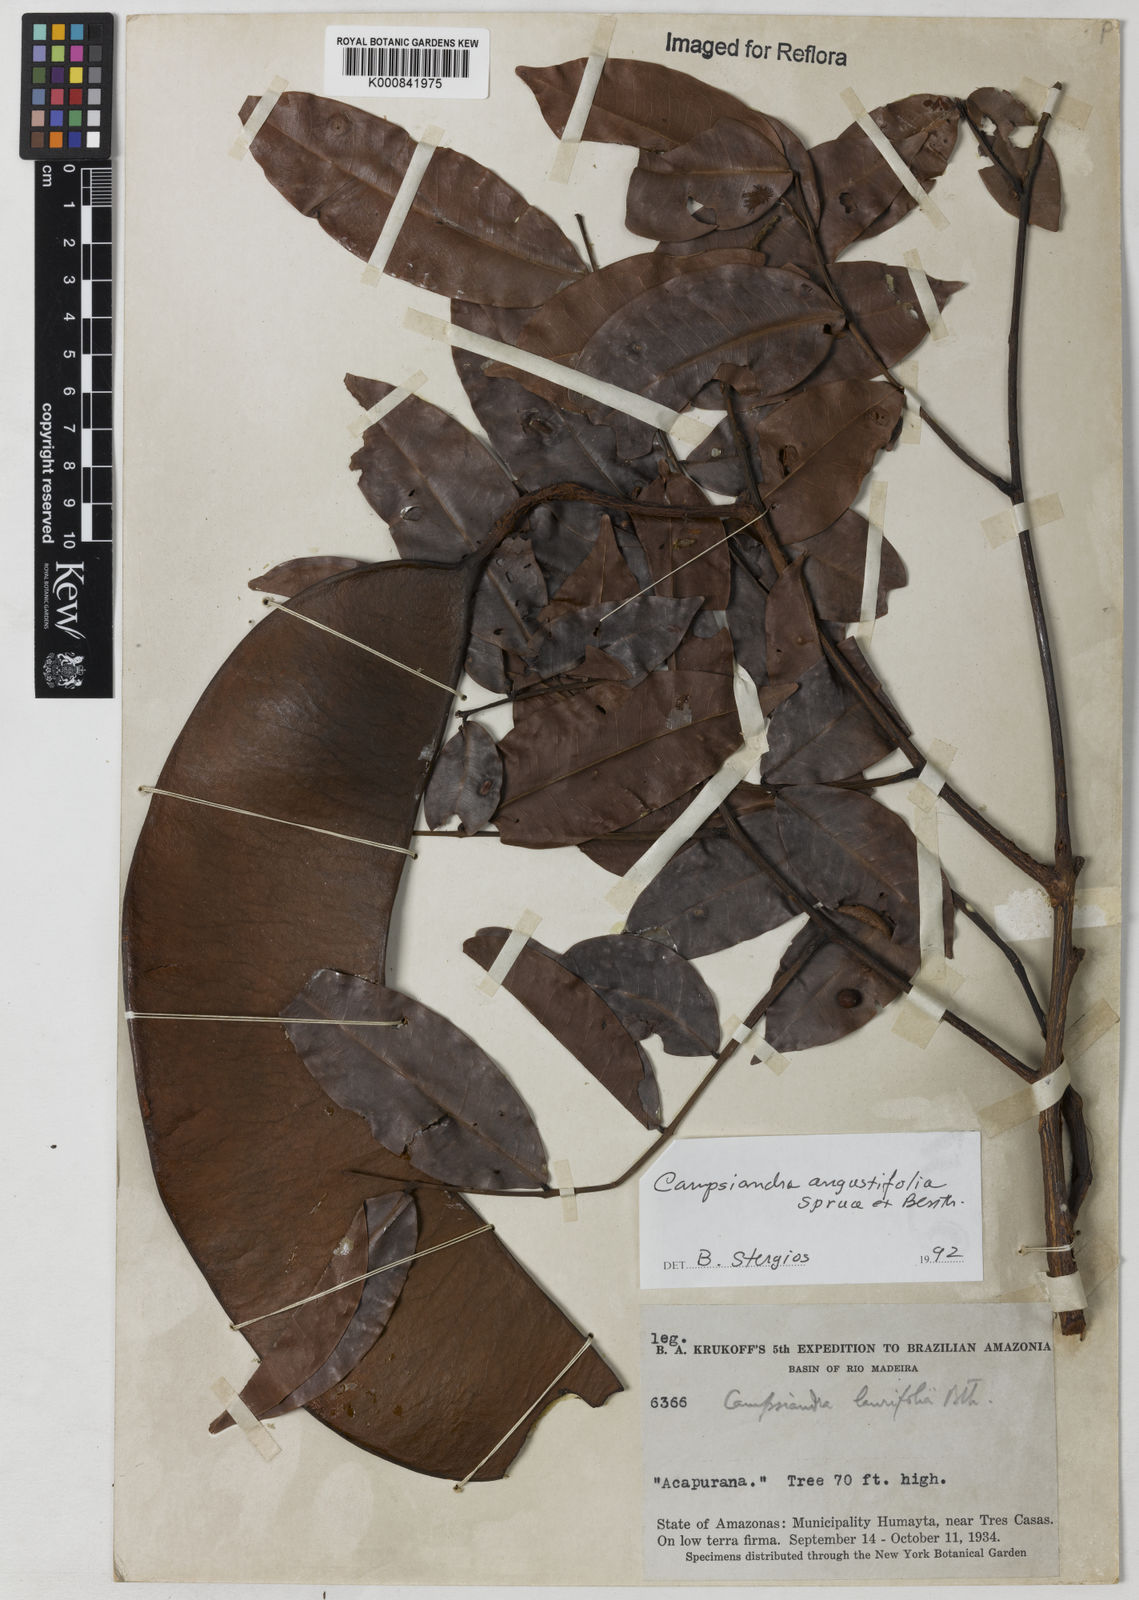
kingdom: Plantae
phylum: Tracheophyta
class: Magnoliopsida
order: Fabales
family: Fabaceae
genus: Campsiandra
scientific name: Campsiandra
